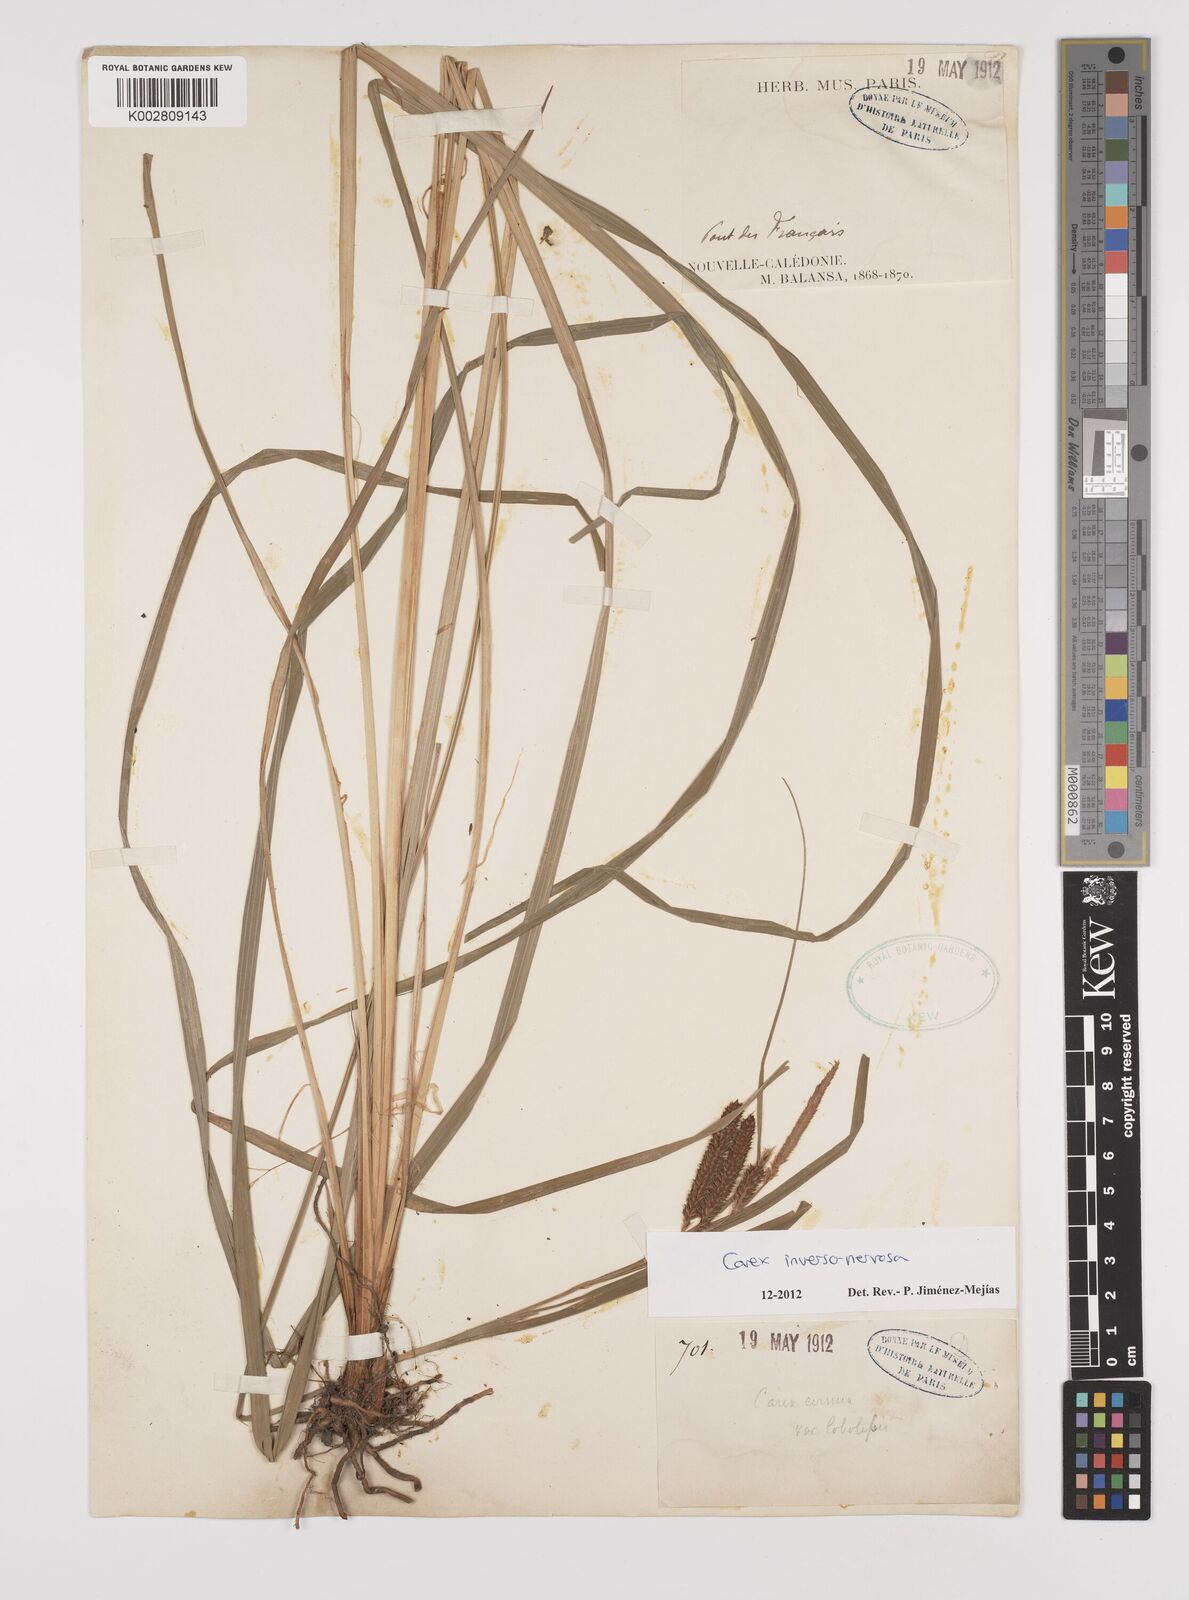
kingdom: Plantae
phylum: Tracheophyta
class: Liliopsida
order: Poales
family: Cyperaceae
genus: Carex
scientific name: Carex inversonervosa
